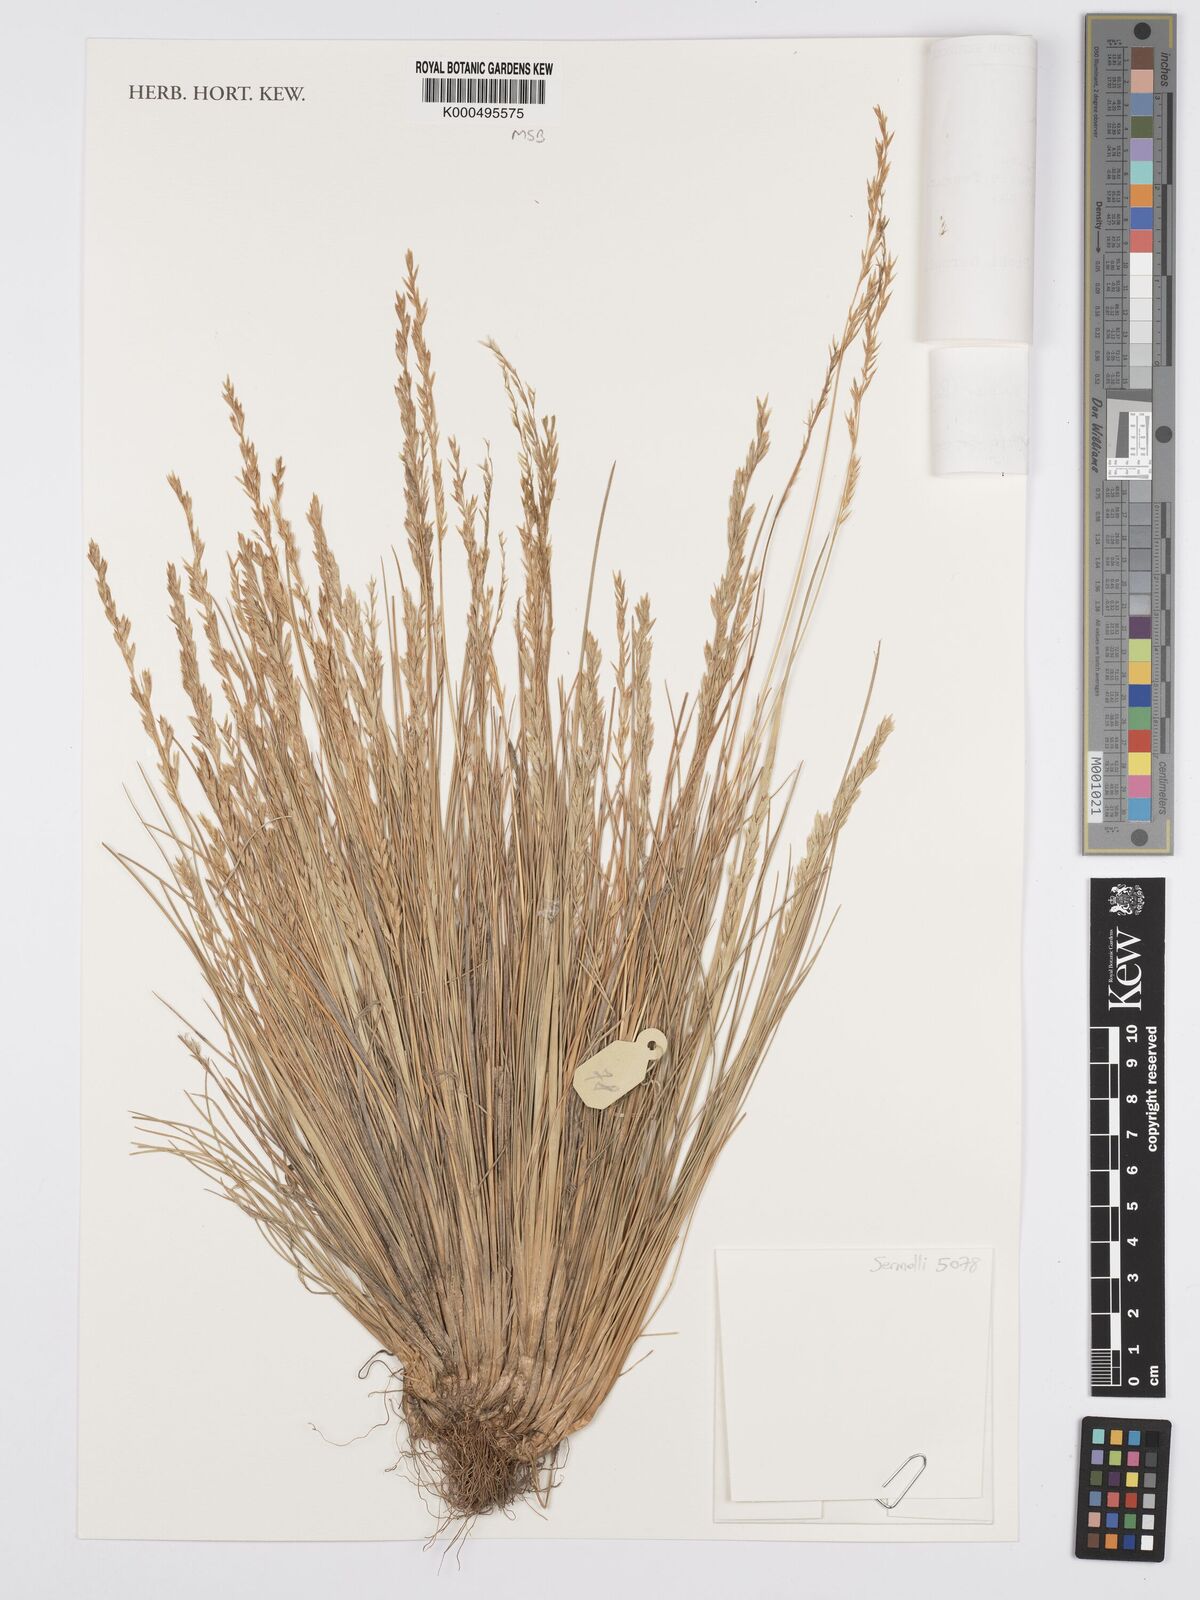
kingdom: Plantae
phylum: Tracheophyta
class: Liliopsida
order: Poales
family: Poaceae
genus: Poa
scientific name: Poa kilimanjarica
